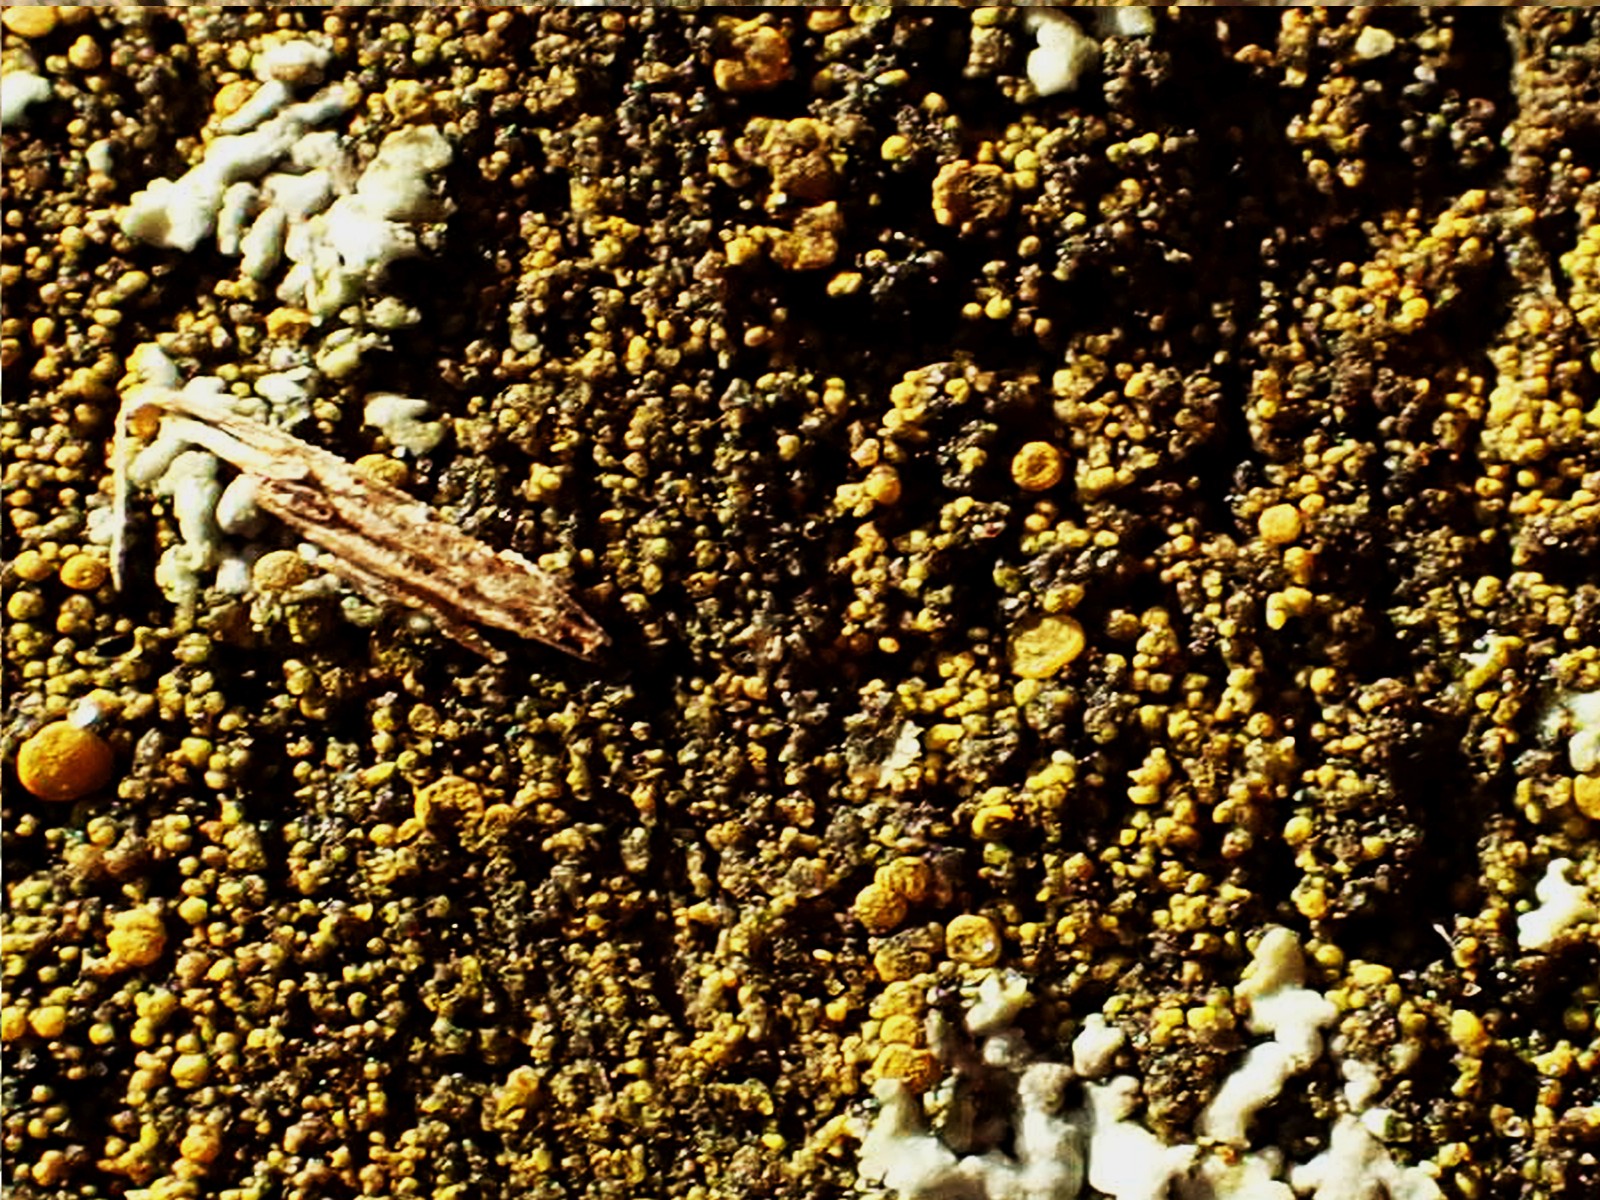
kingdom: Fungi
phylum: Ascomycota
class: Candelariomycetes
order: Candelariales
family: Candelariaceae
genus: Candelariella
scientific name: Candelariella vitellina
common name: almindelig æggeblommelav
